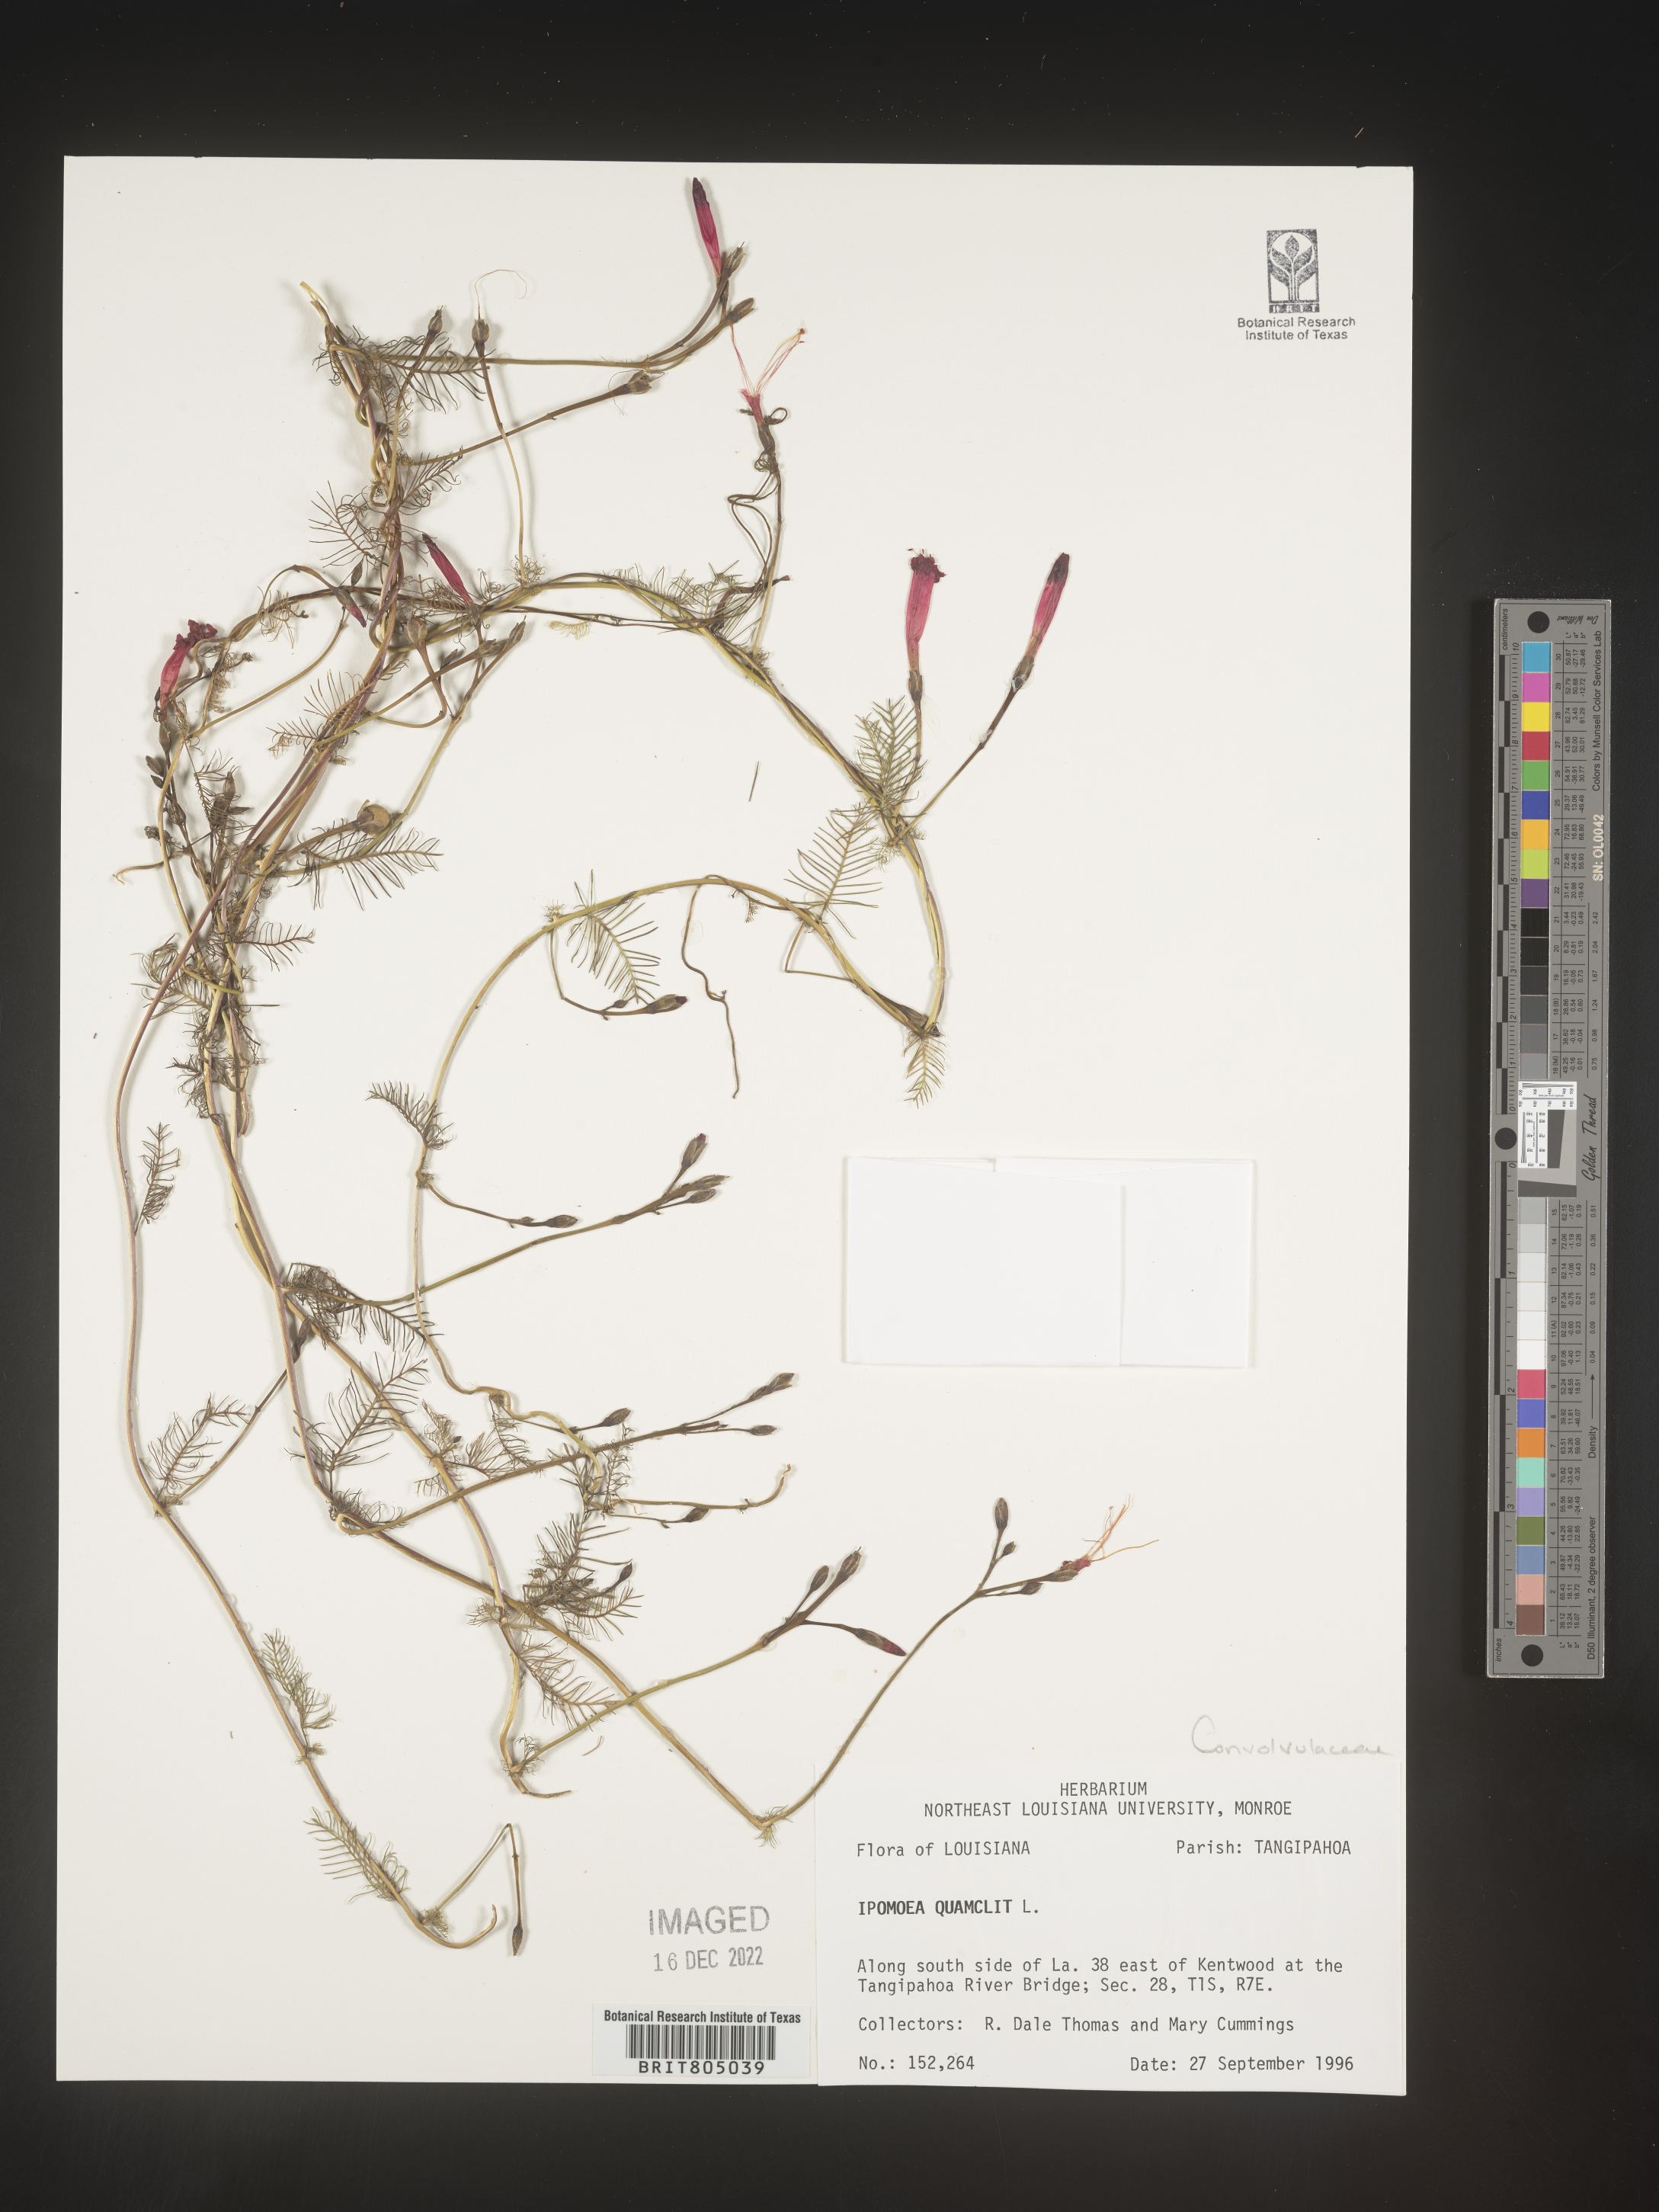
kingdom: Plantae
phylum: Tracheophyta
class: Magnoliopsida
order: Solanales
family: Convolvulaceae
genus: Ipomoea
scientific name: Ipomoea quamoclit
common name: Cypress vine
